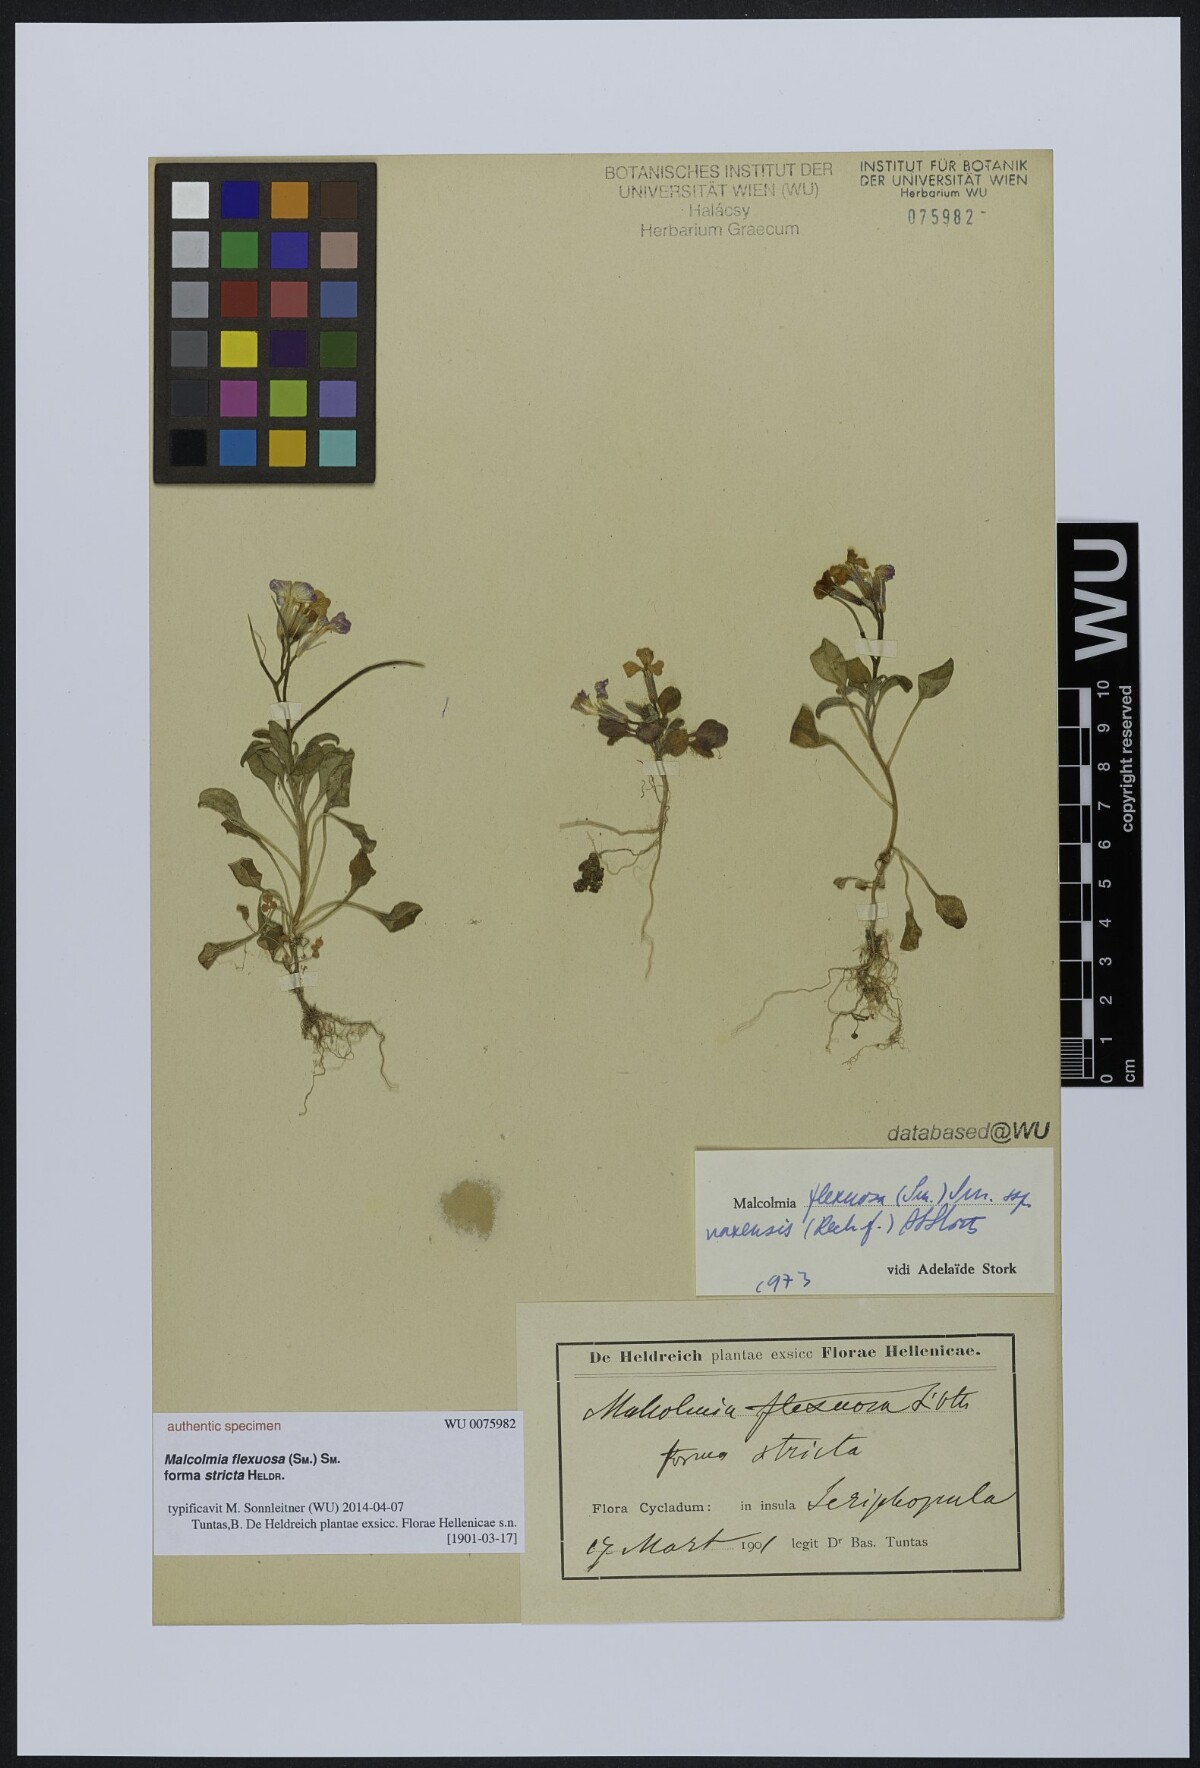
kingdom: Plantae
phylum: Tracheophyta
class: Magnoliopsida
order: Brassicales
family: Brassicaceae
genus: Malcolmia
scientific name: Malcolmia flexuosa
